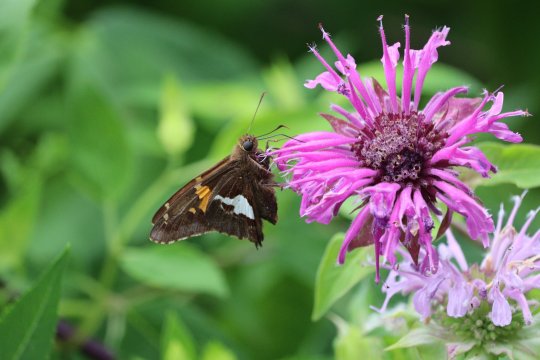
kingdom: Animalia
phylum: Arthropoda
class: Insecta
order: Lepidoptera
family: Hesperiidae
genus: Epargyreus
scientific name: Epargyreus clarus
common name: Silver-spotted Skipper
